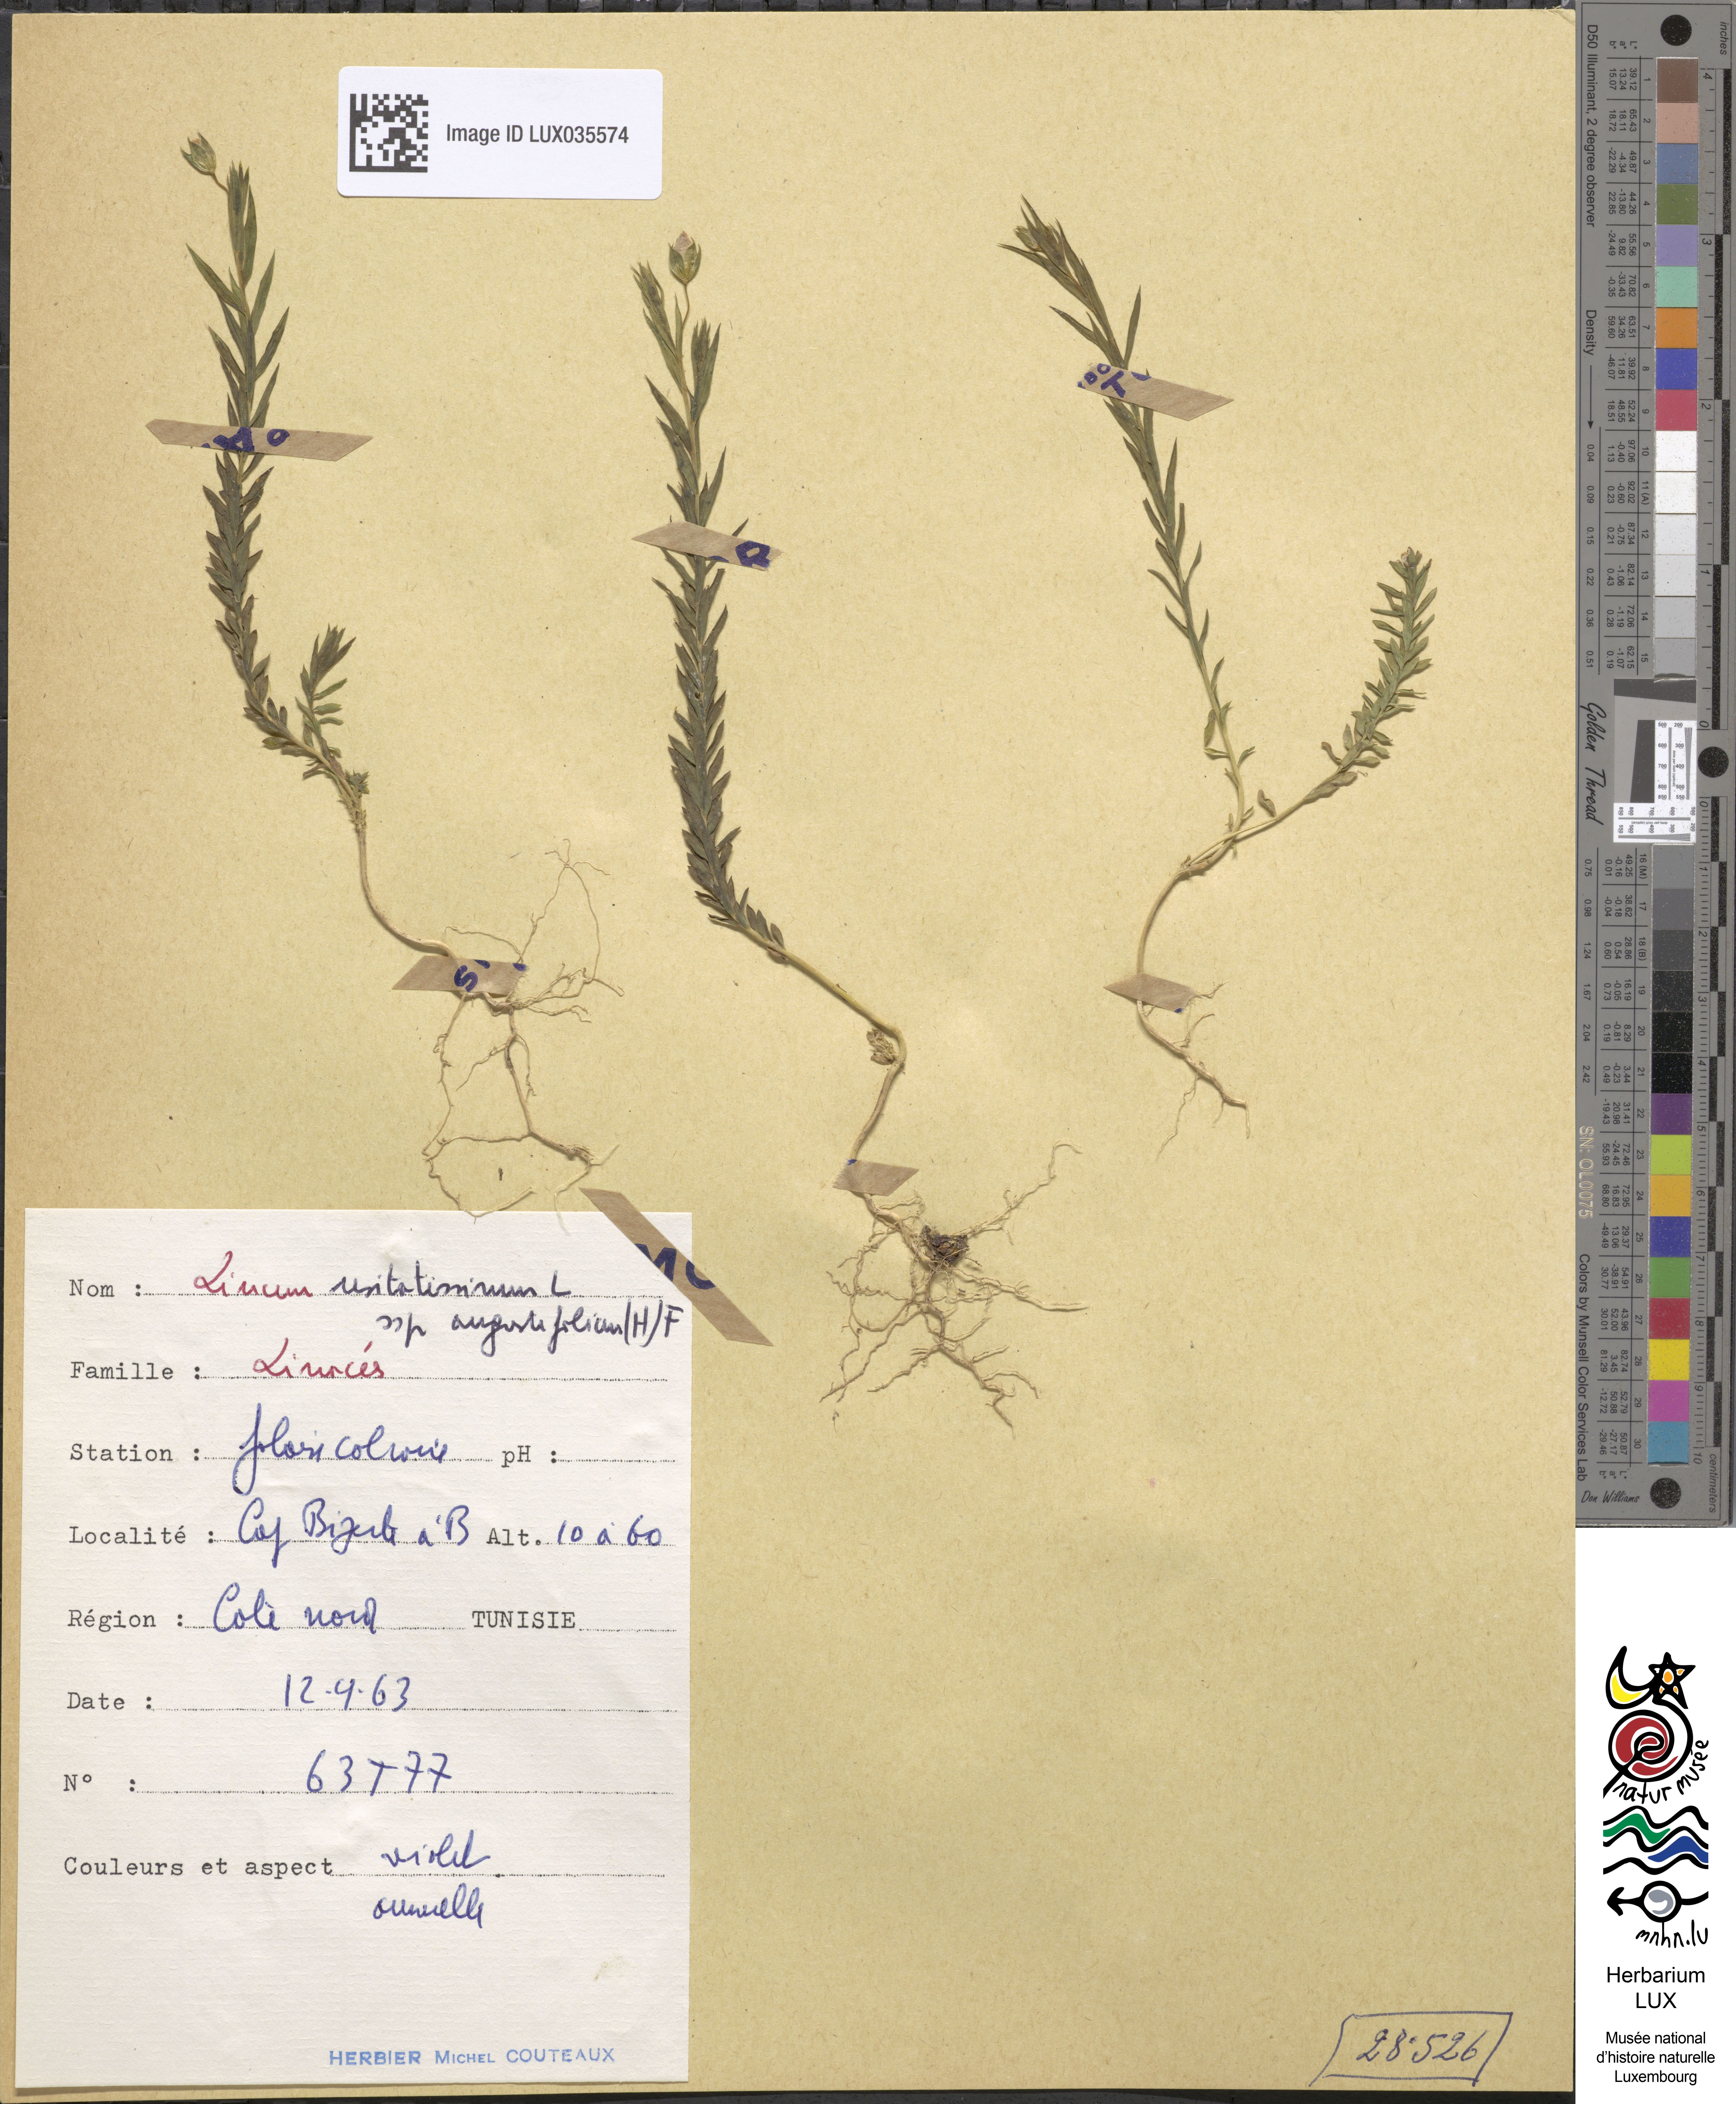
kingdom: Plantae
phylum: Tracheophyta
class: Magnoliopsida
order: Malpighiales
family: Linaceae
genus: Linum
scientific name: Linum bienne
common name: Pale flax
